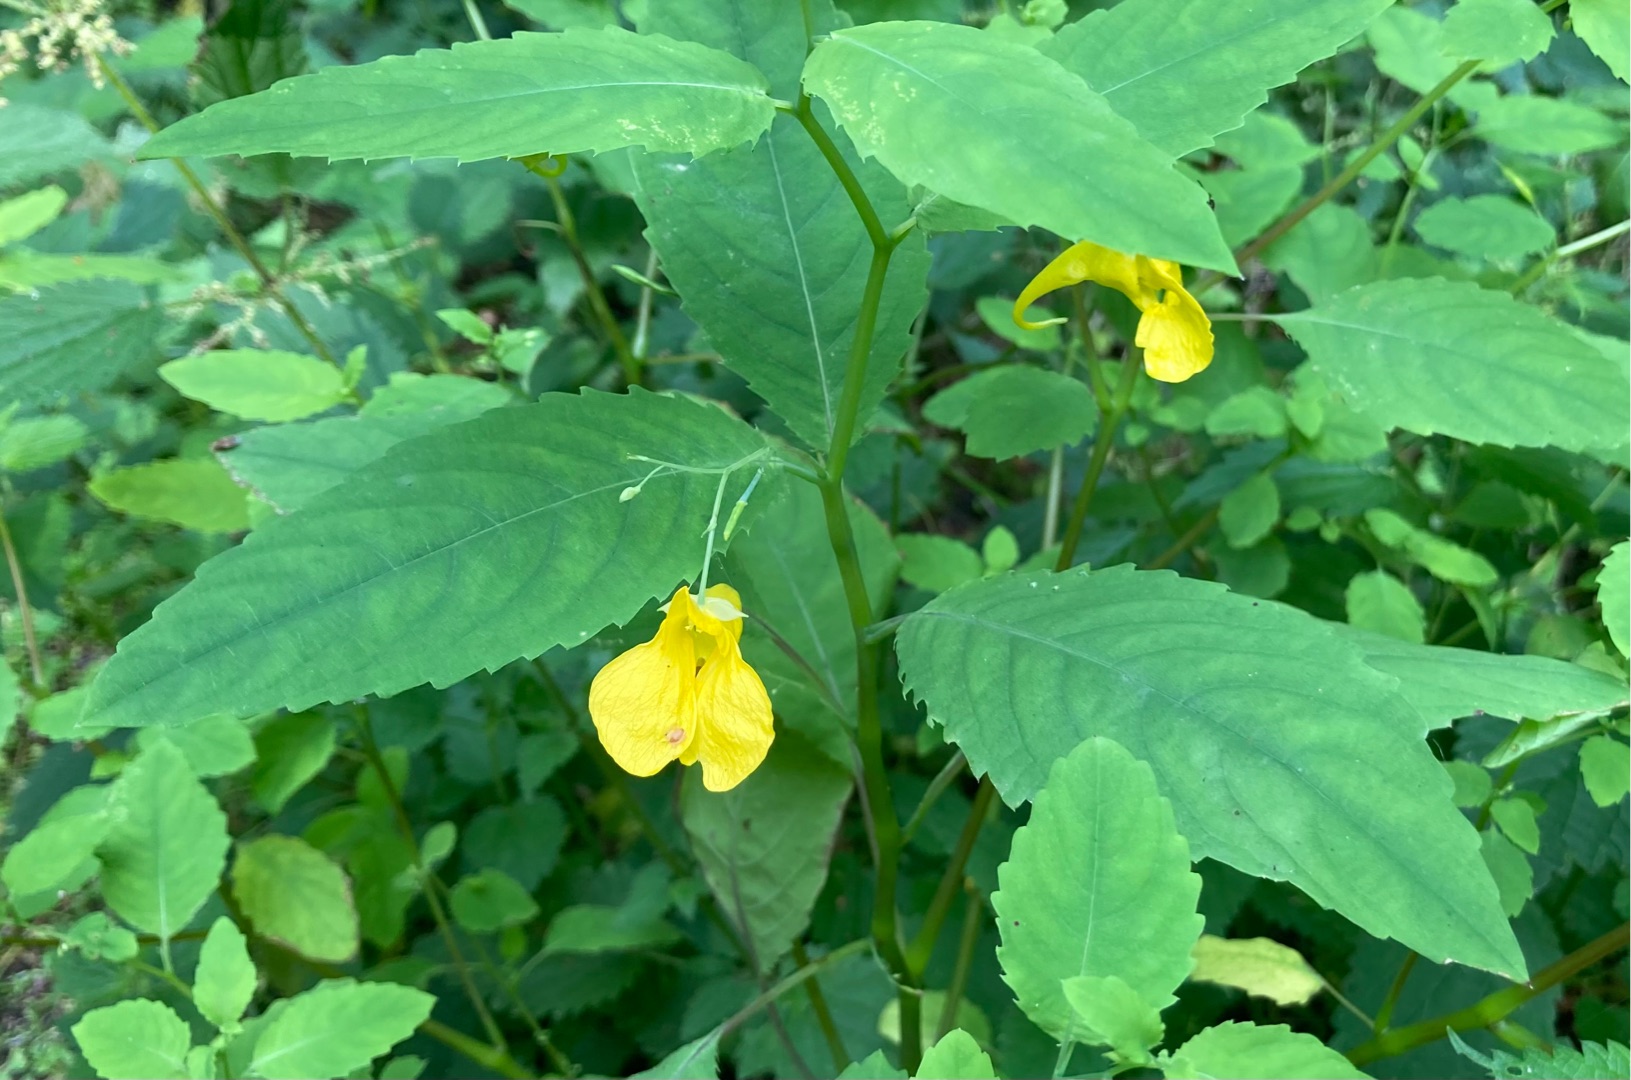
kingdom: Plantae
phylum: Tracheophyta
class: Magnoliopsida
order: Ericales
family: Balsaminaceae
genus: Impatiens
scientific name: Impatiens noli-tangere
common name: Spring-balsamin
